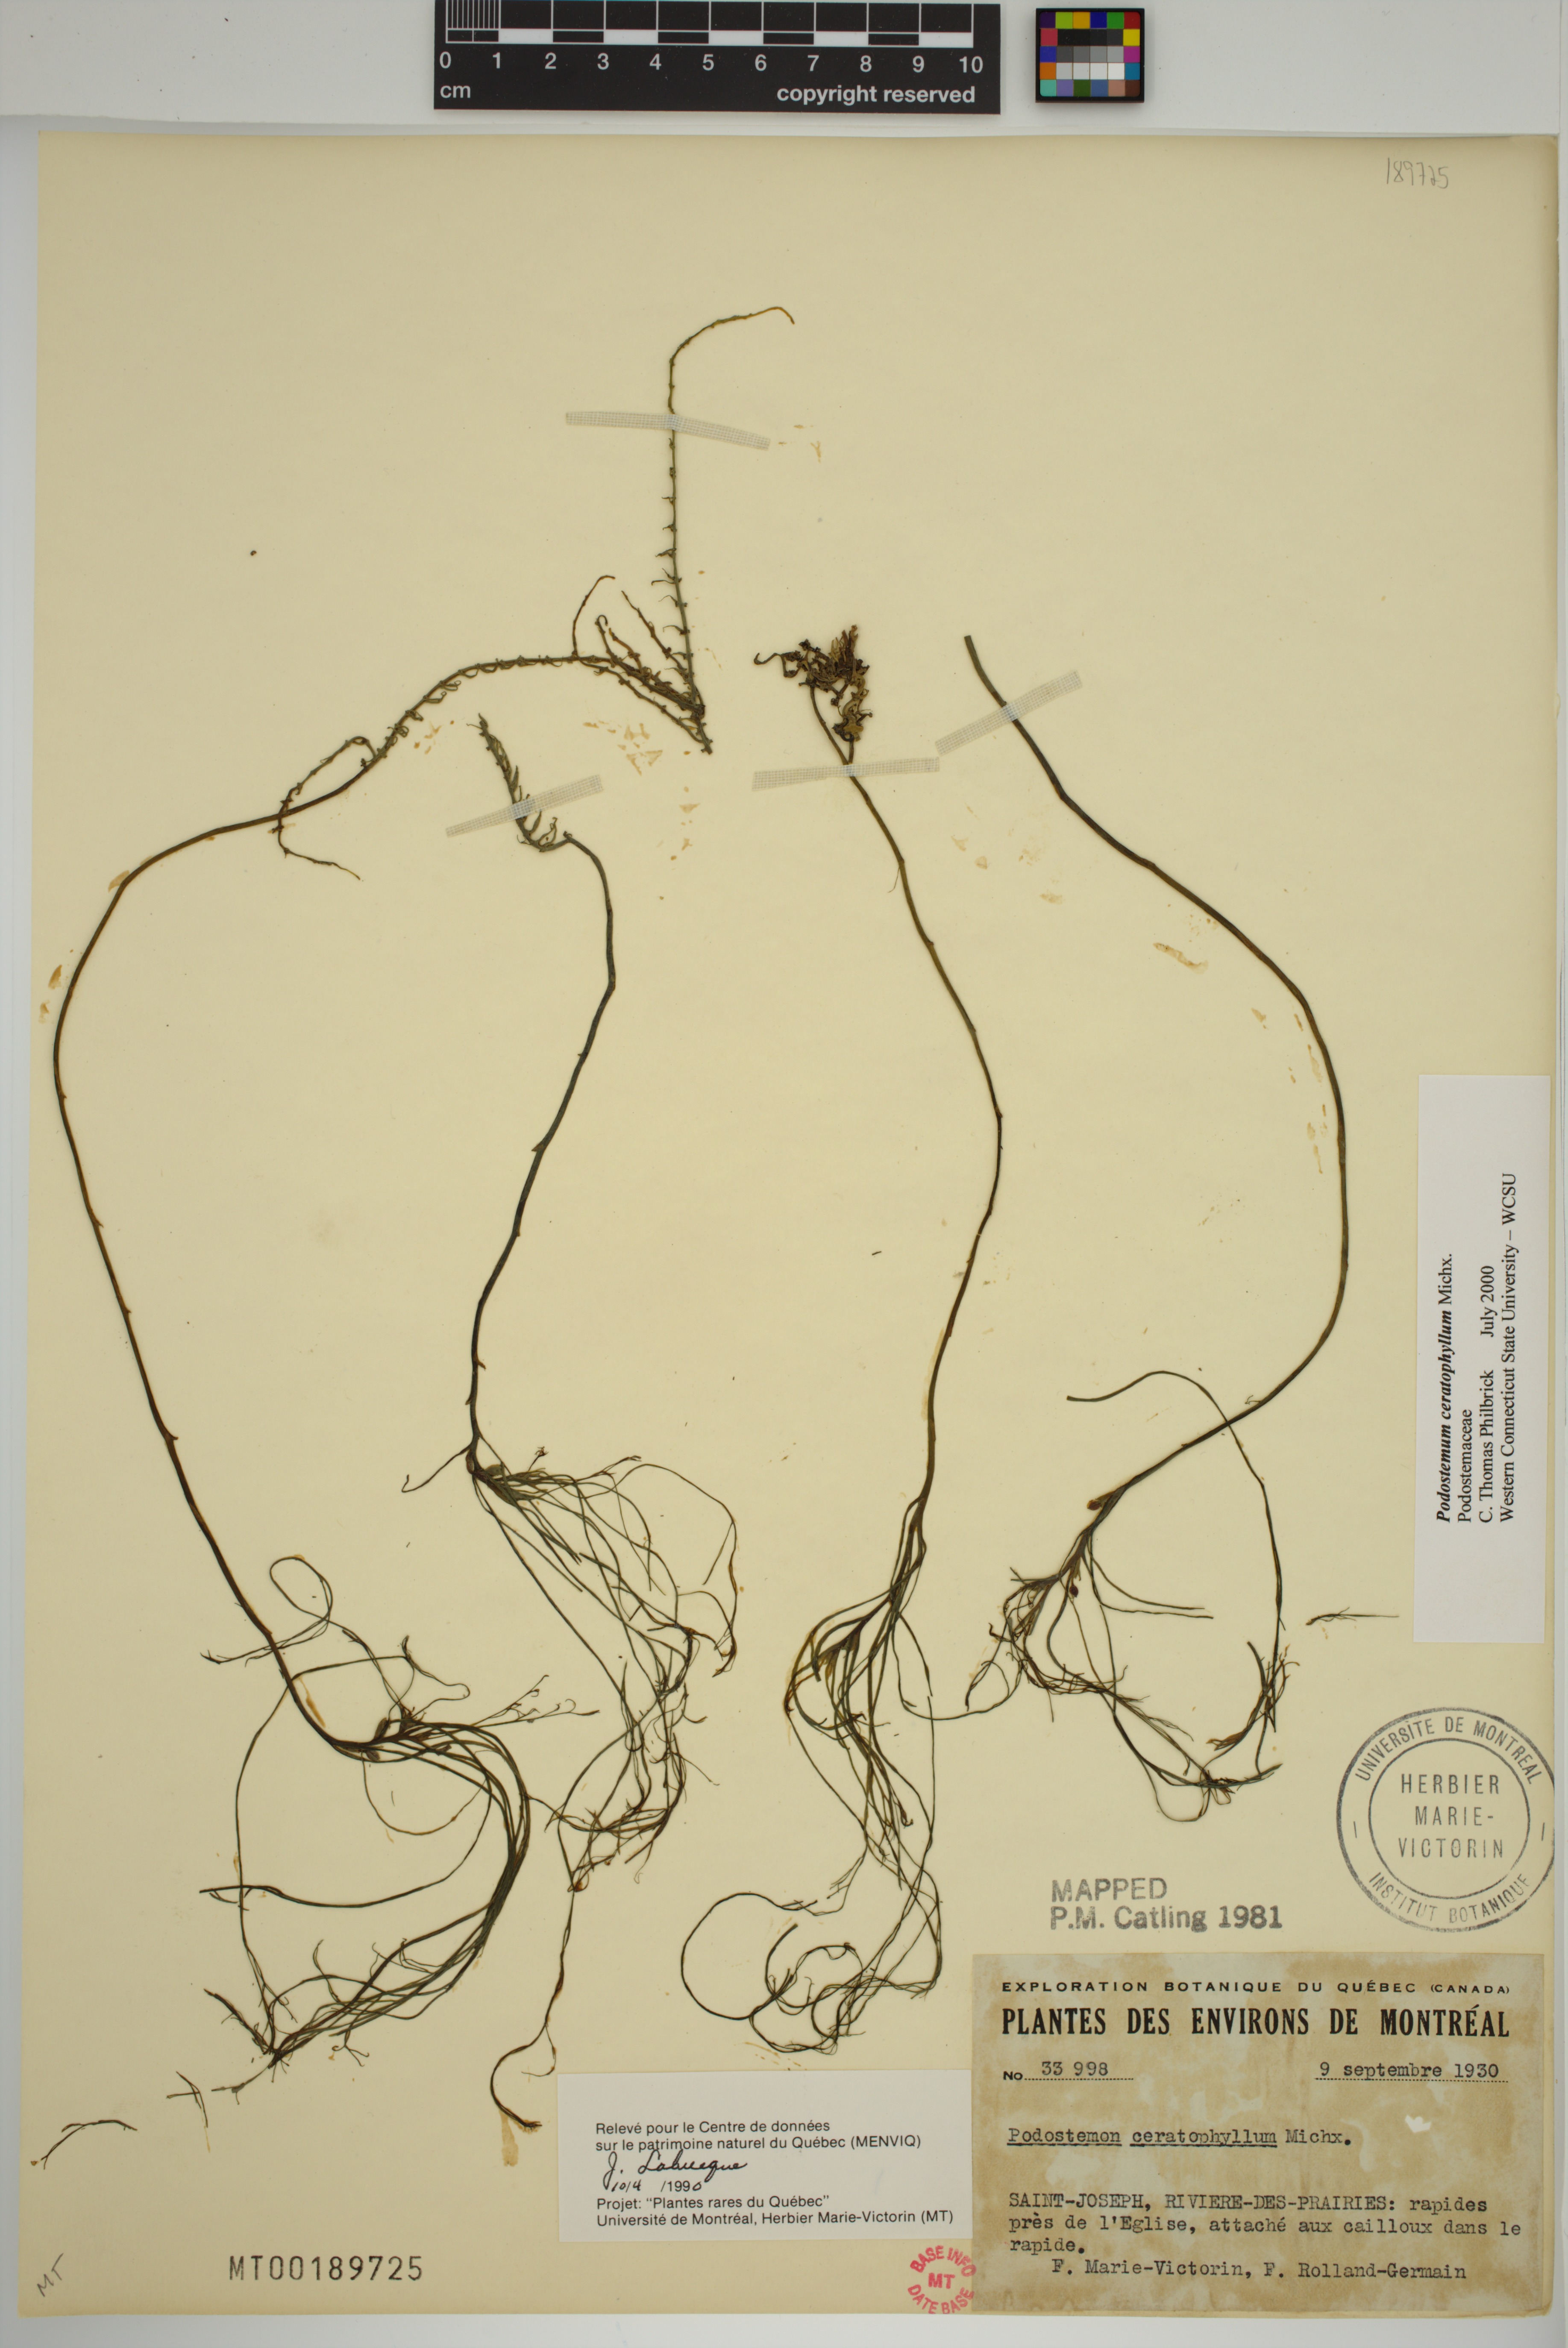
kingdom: Plantae
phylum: Tracheophyta
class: Magnoliopsida
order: Malpighiales
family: Podostemaceae
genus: Podostemum
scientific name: Podostemum ceratophyllum
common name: Horn-leaved riverweed
